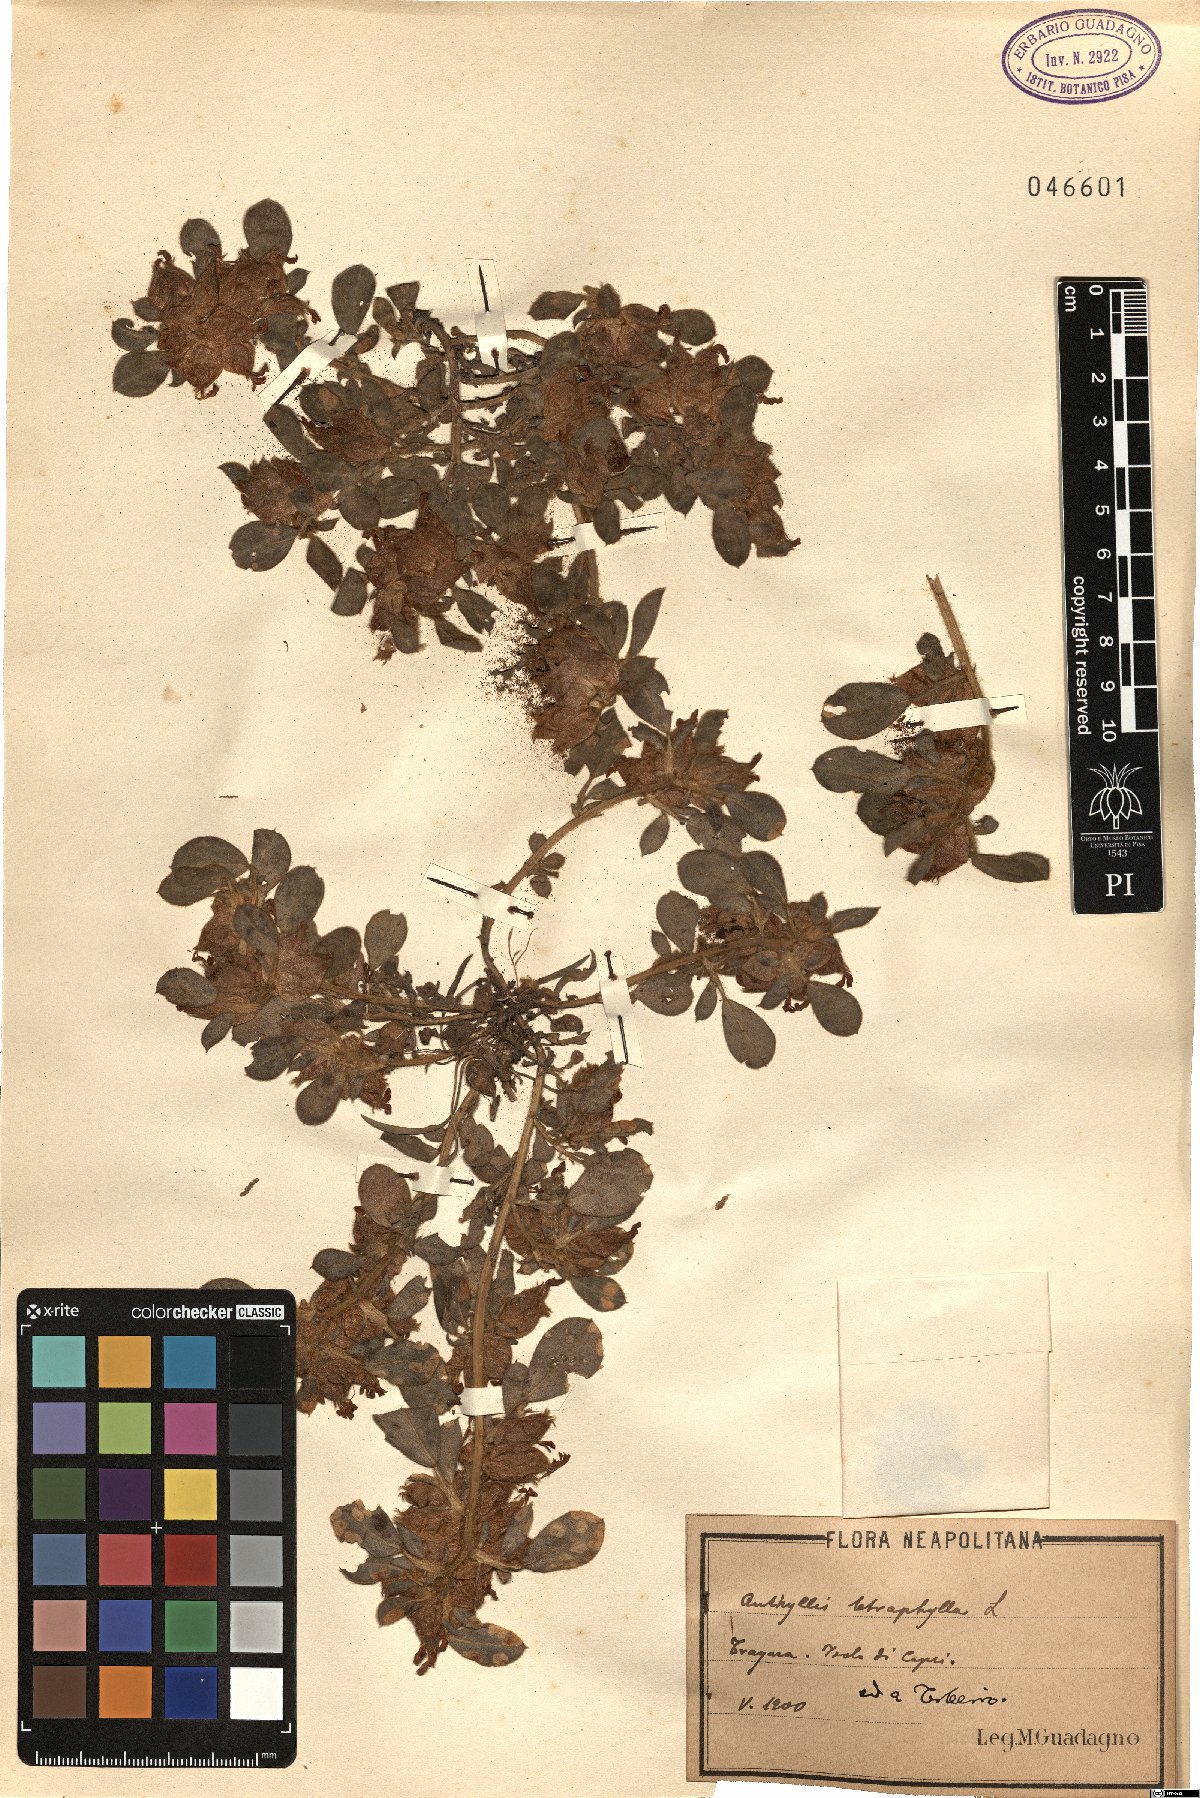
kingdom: Plantae
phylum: Tracheophyta
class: Magnoliopsida
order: Fabales
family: Fabaceae
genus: Tripodion
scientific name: Tripodion tetraphyllum
